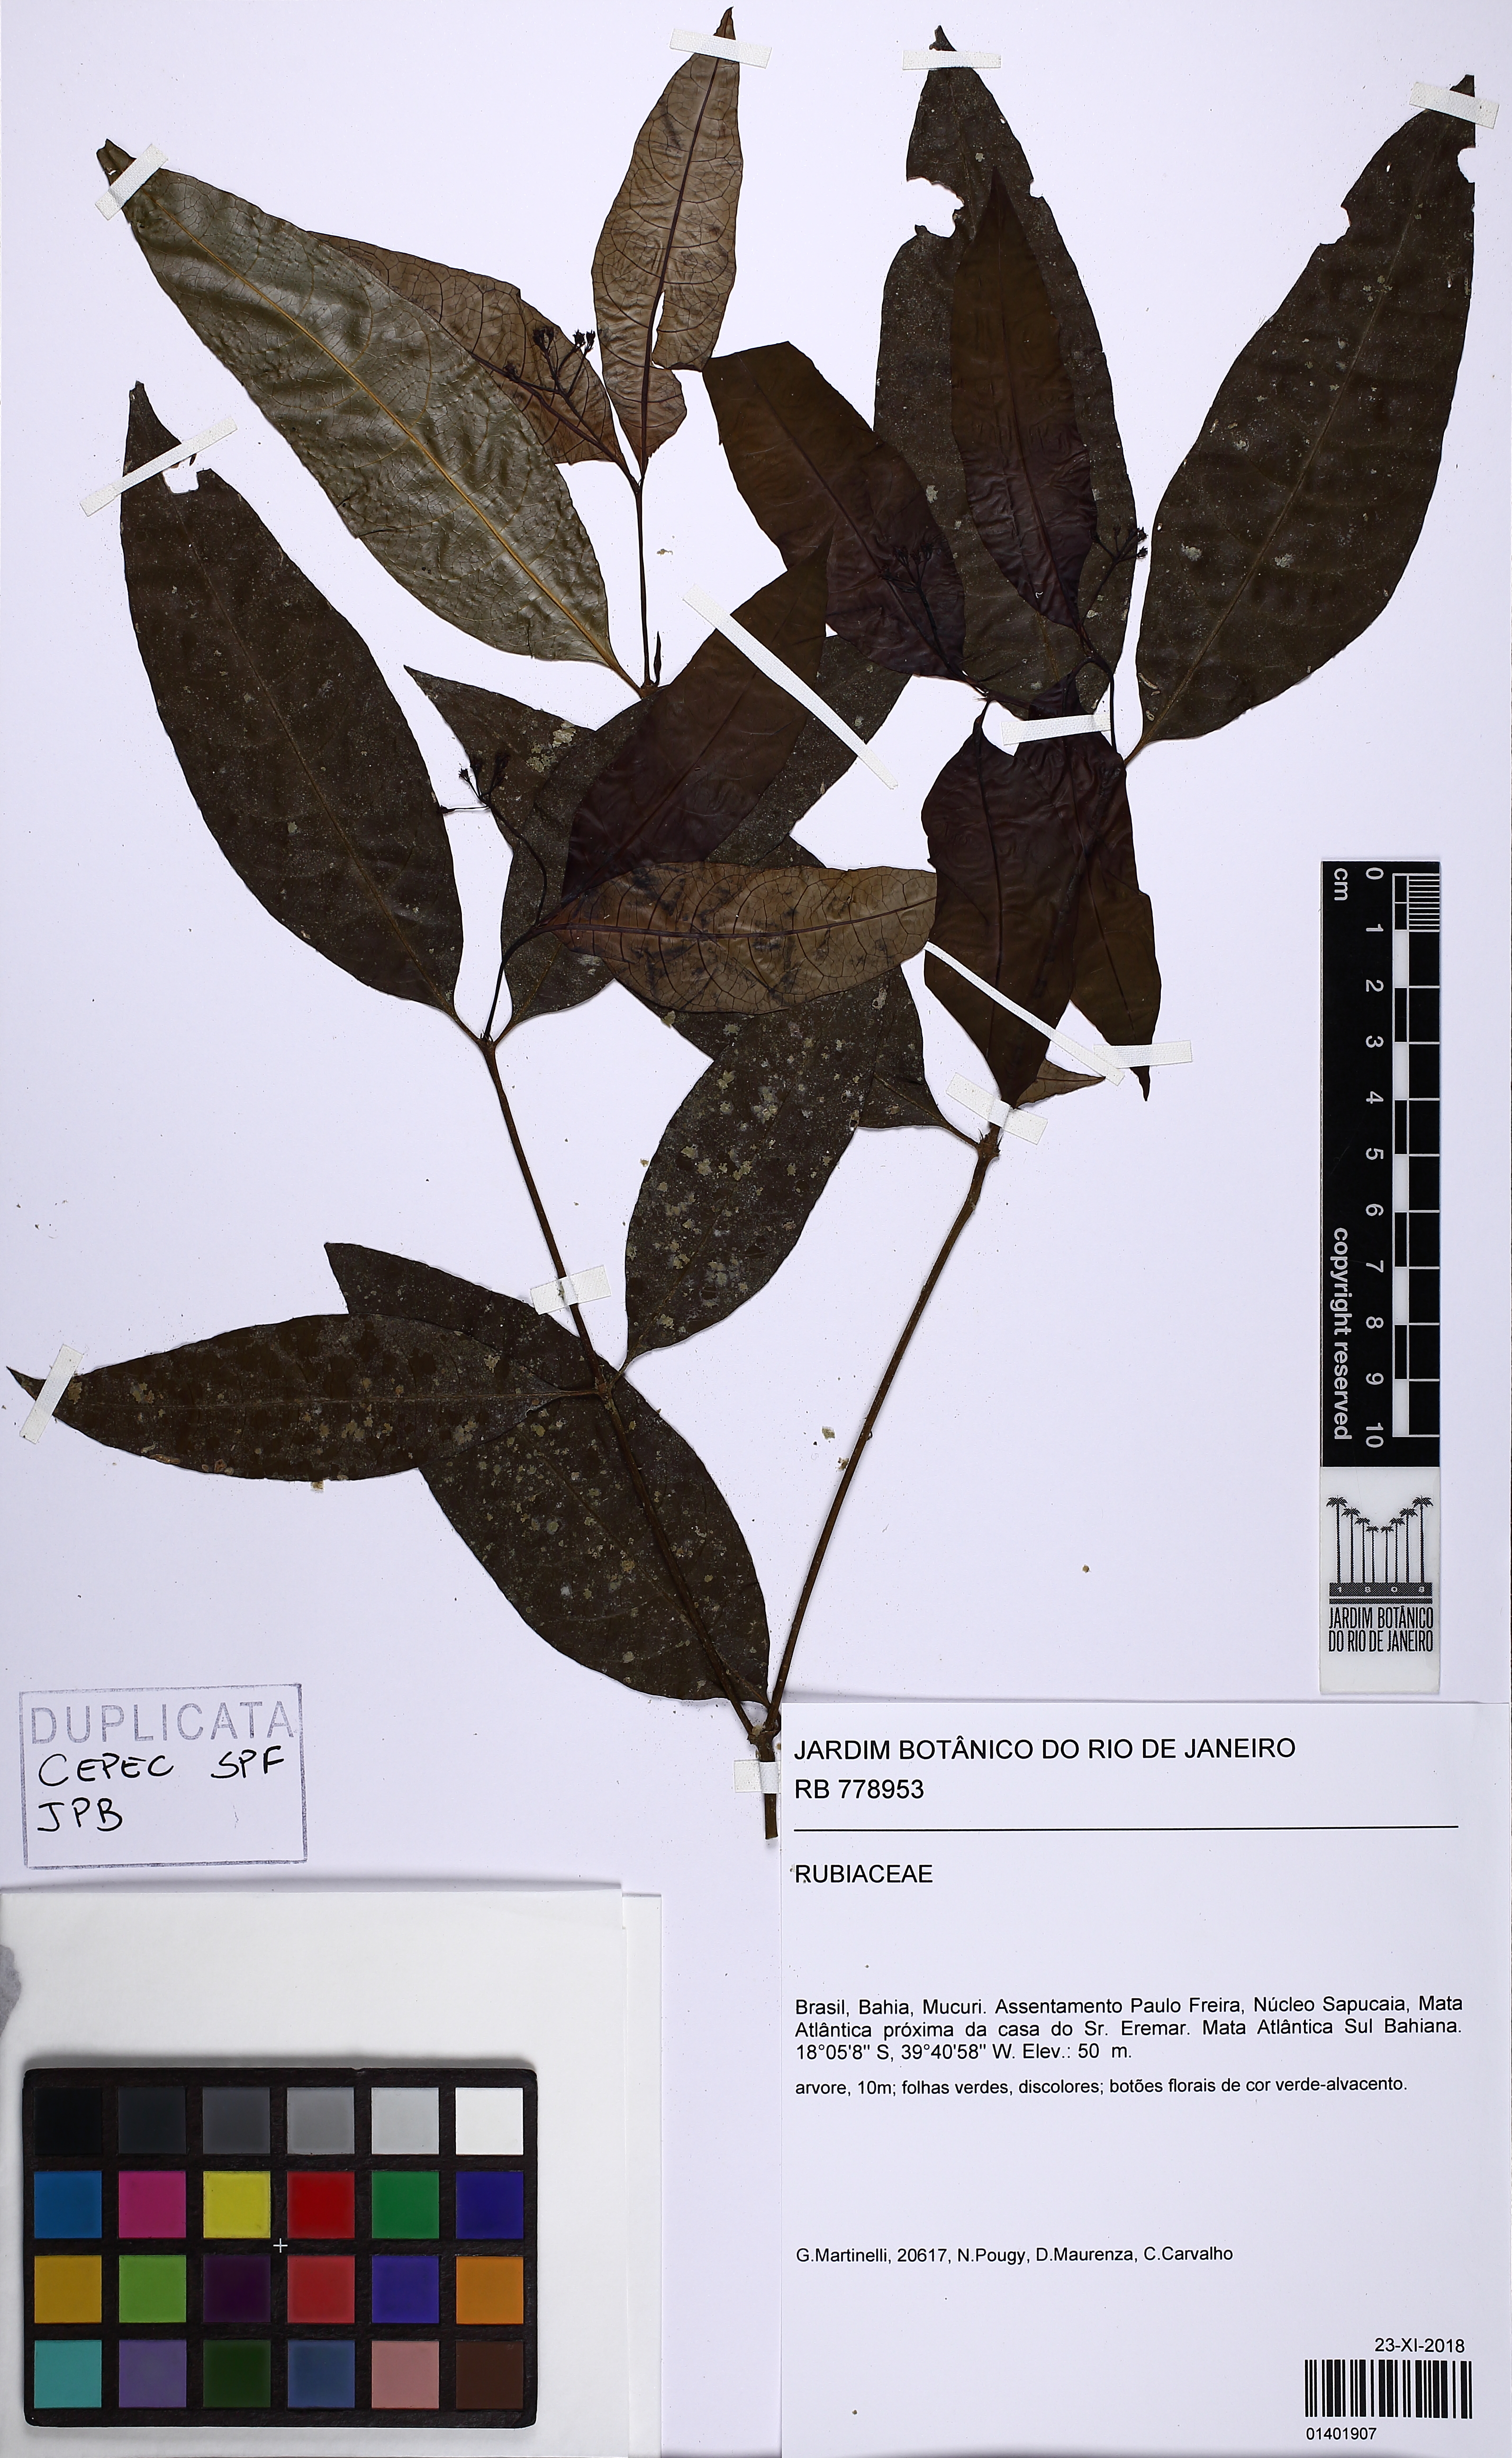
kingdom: Plantae
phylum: Tracheophyta
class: Magnoliopsida
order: Gentianales
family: Rubiaceae
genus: Palicourea
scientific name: Palicourea
